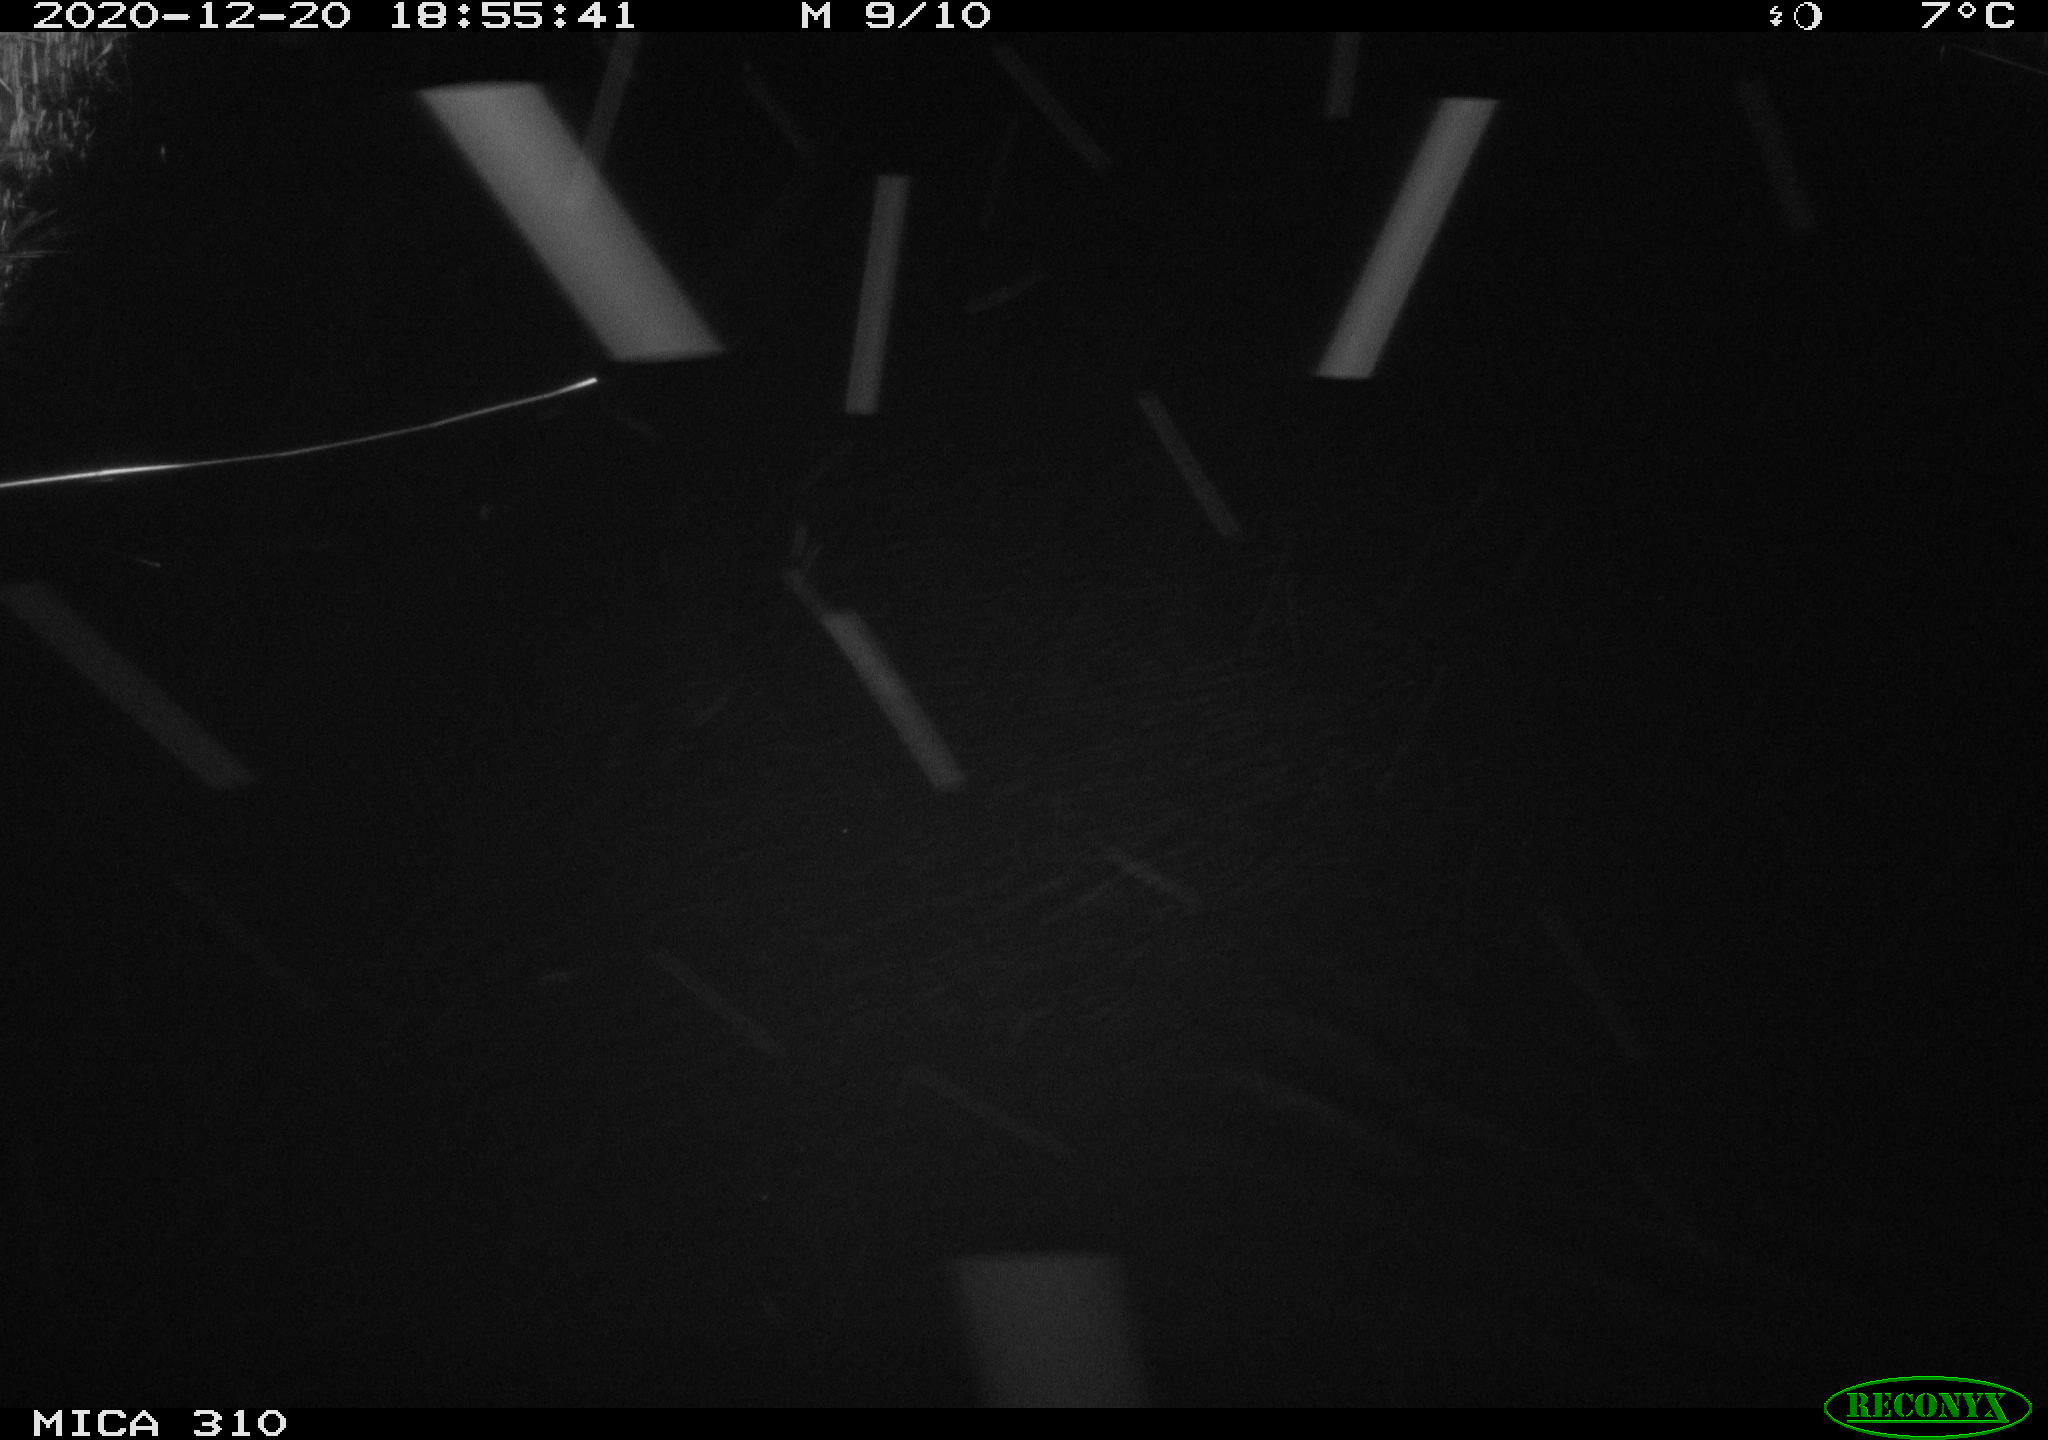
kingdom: Animalia
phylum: Chordata
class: Mammalia
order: Rodentia
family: Muridae
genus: Rattus
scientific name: Rattus norvegicus
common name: Brown rat
